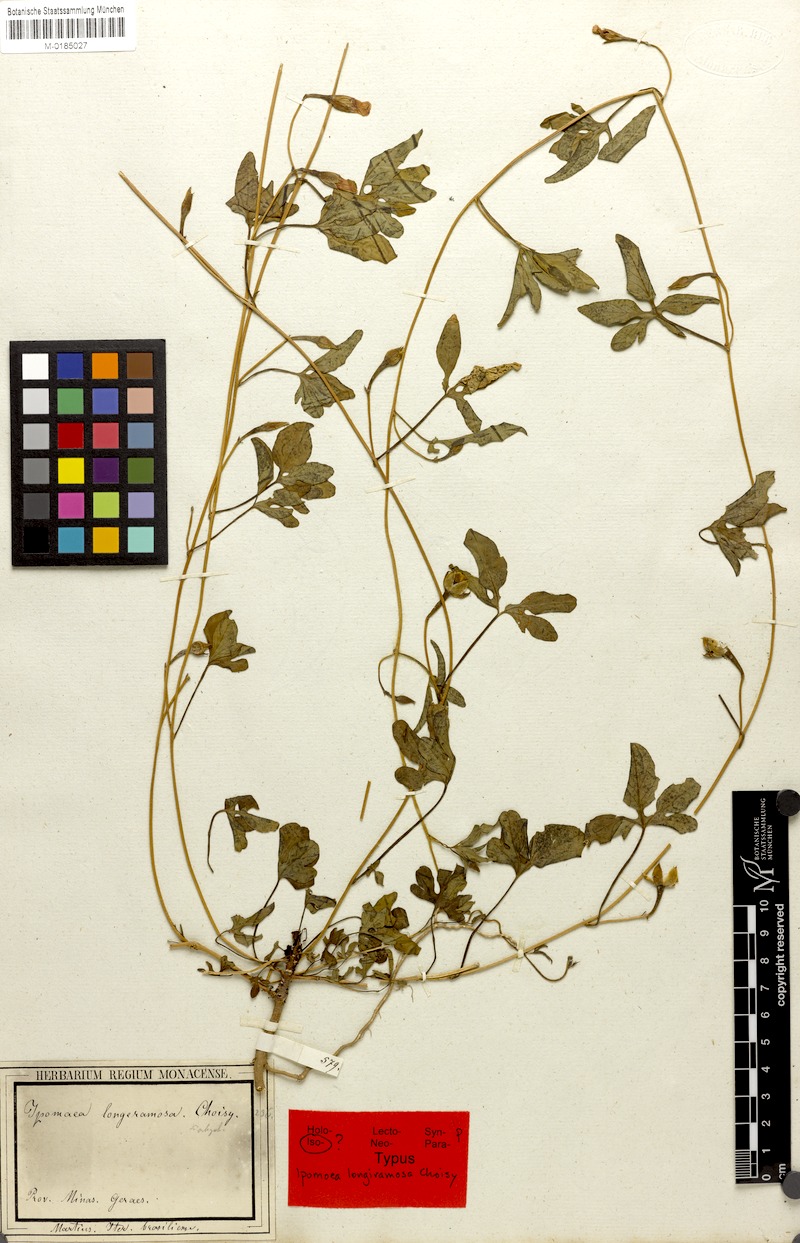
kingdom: Plantae
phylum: Tracheophyta
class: Magnoliopsida
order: Solanales
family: Convolvulaceae
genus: Ipomoea
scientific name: Ipomoea longeramosa
